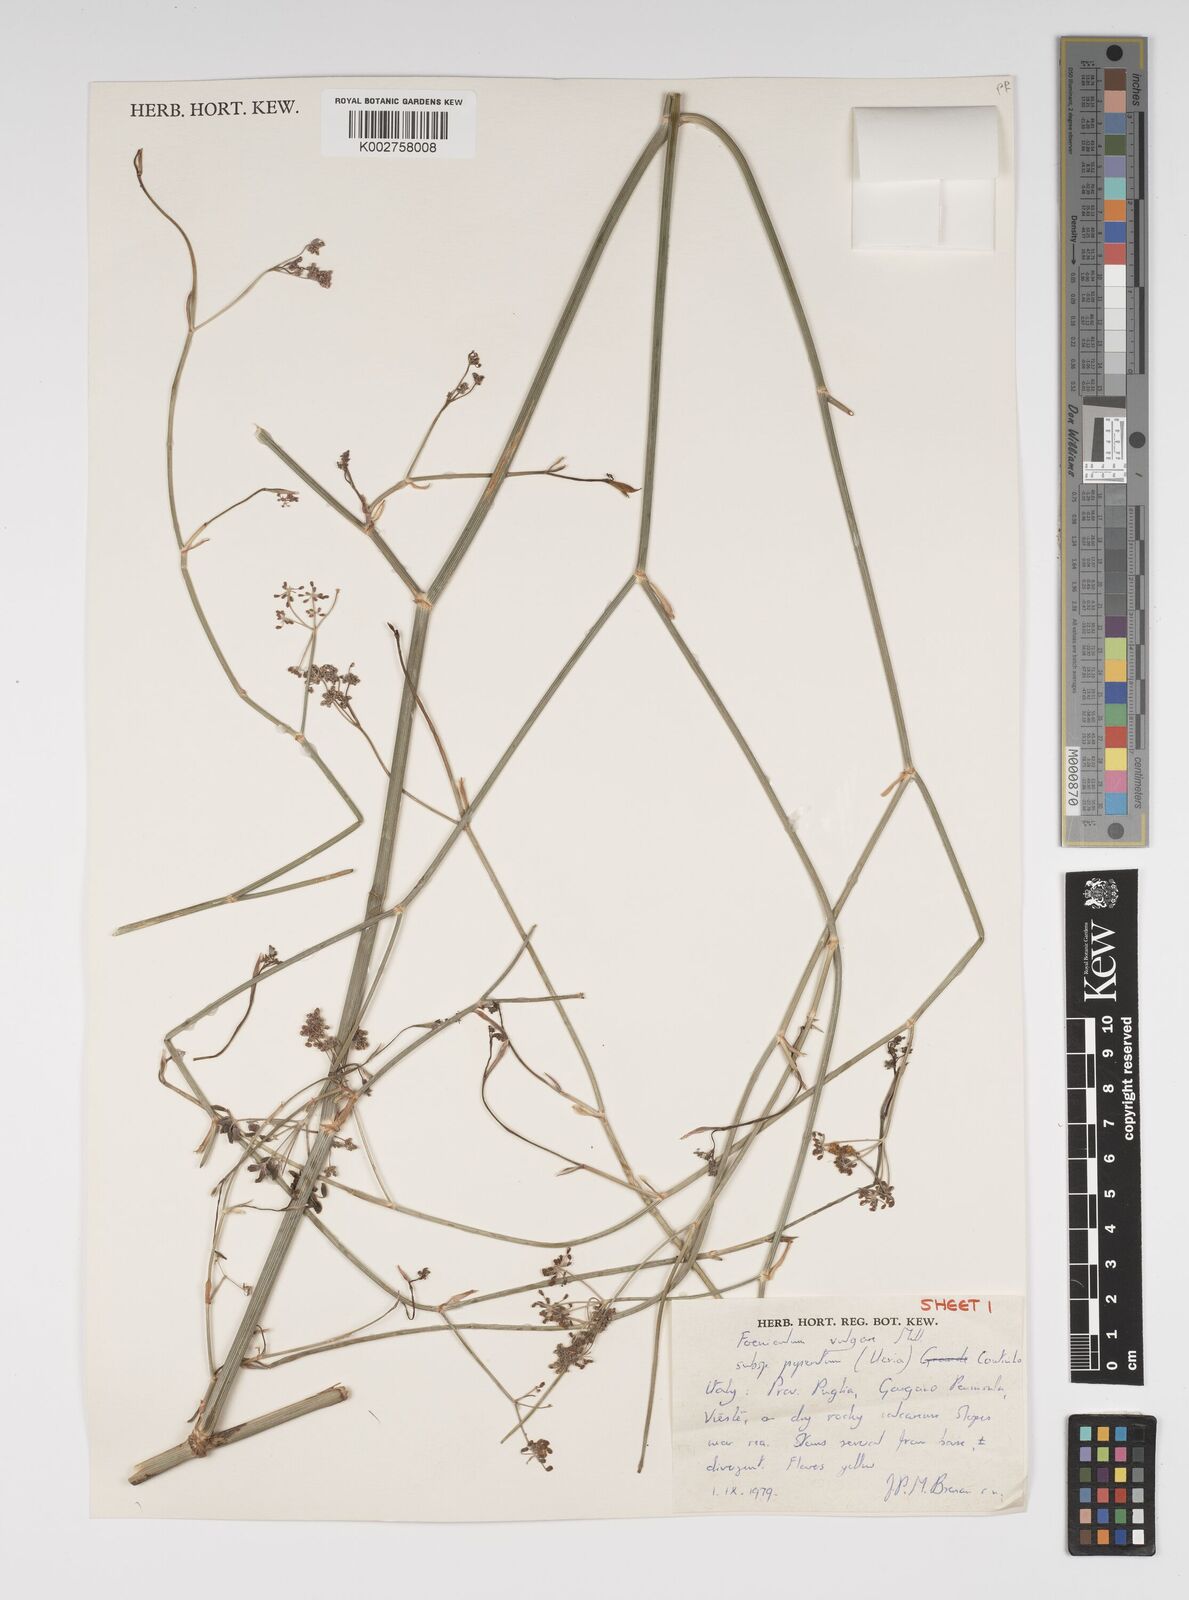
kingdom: Plantae
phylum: Tracheophyta
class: Magnoliopsida
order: Apiales
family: Apiaceae
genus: Foeniculum
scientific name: Foeniculum vulgare
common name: Fennel
